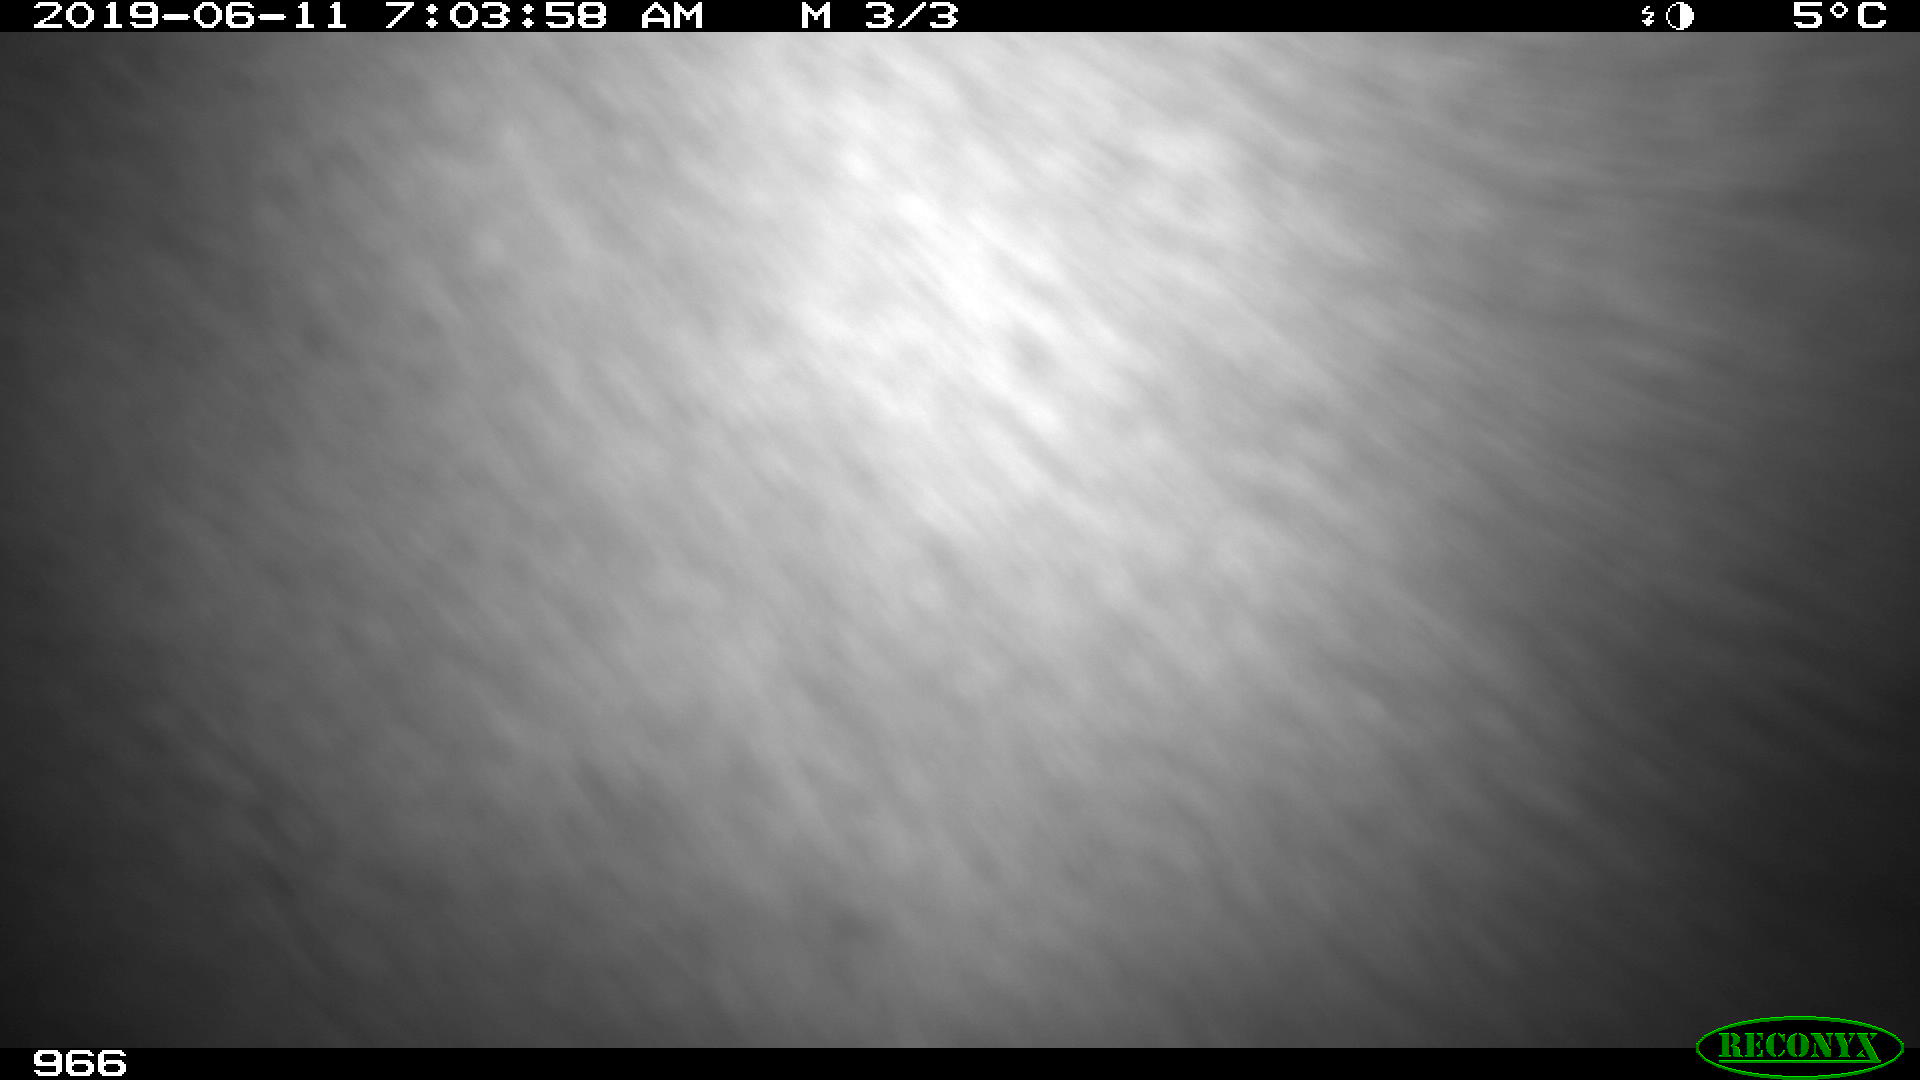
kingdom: Animalia
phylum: Chordata
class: Mammalia
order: Perissodactyla
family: Equidae
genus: Equus
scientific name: Equus caballus
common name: Horse
